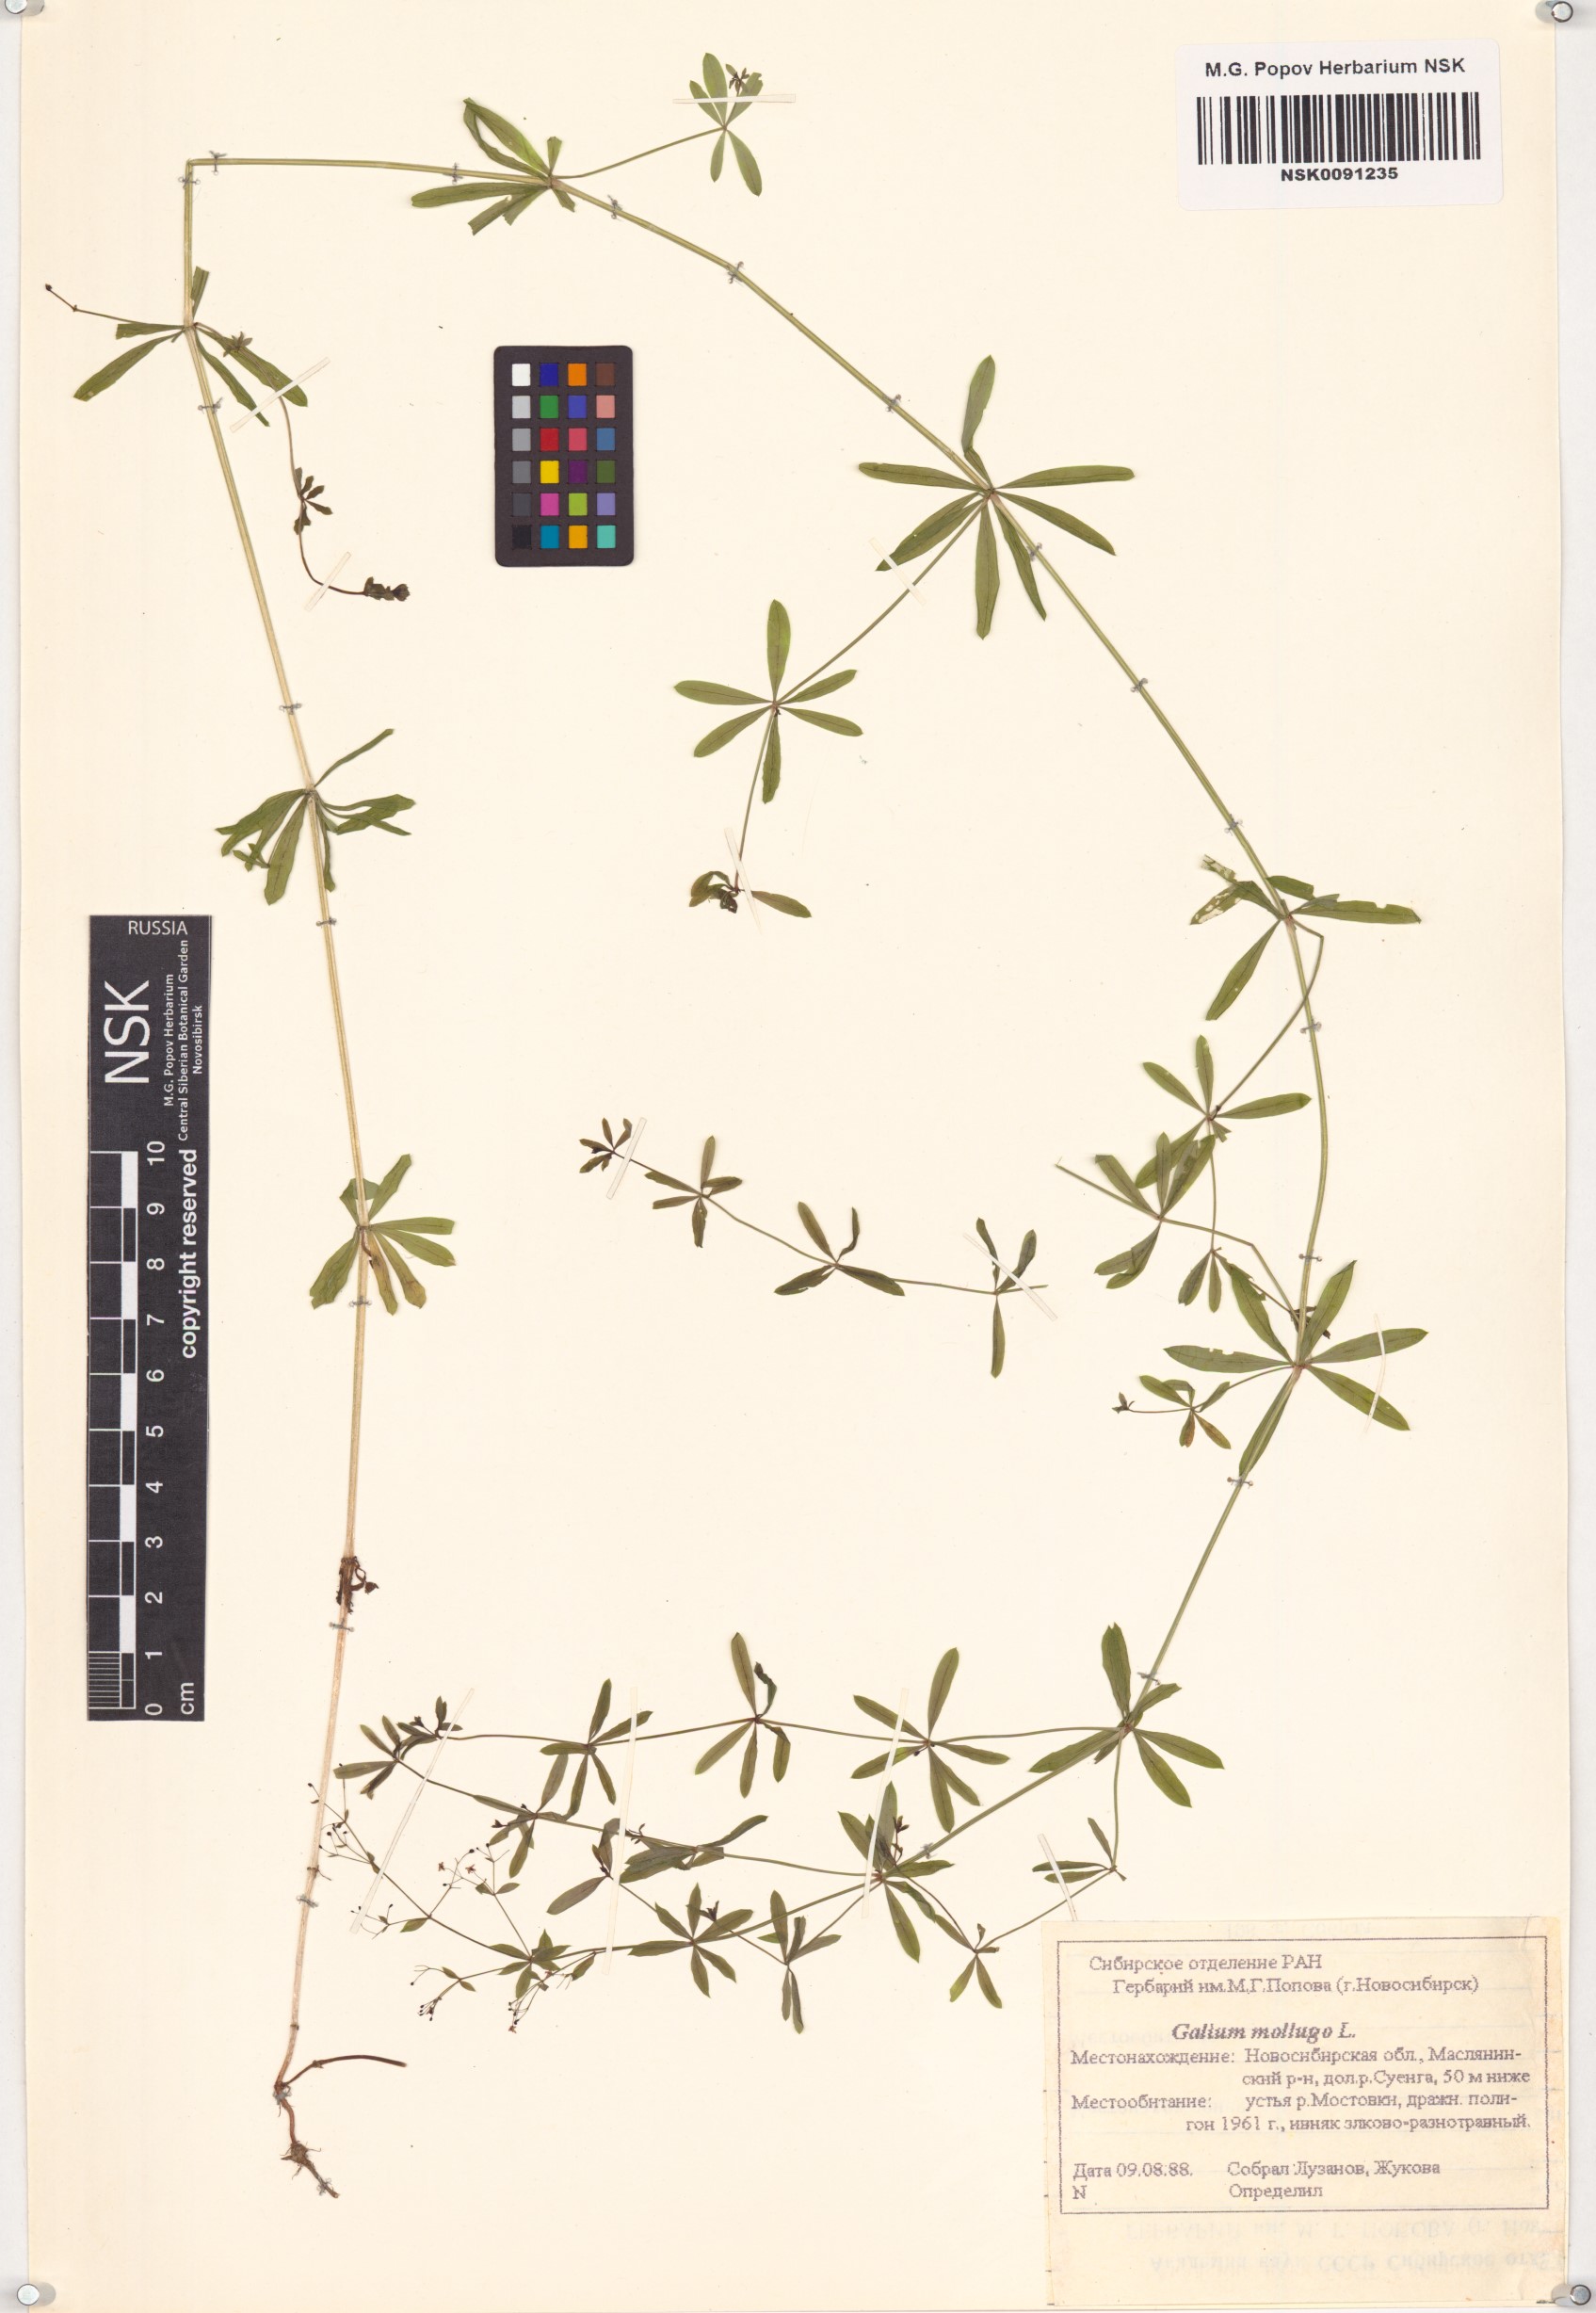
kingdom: Plantae
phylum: Tracheophyta
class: Magnoliopsida
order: Gentianales
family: Rubiaceae
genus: Galium
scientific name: Galium mollugo
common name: Hedge bedstraw
